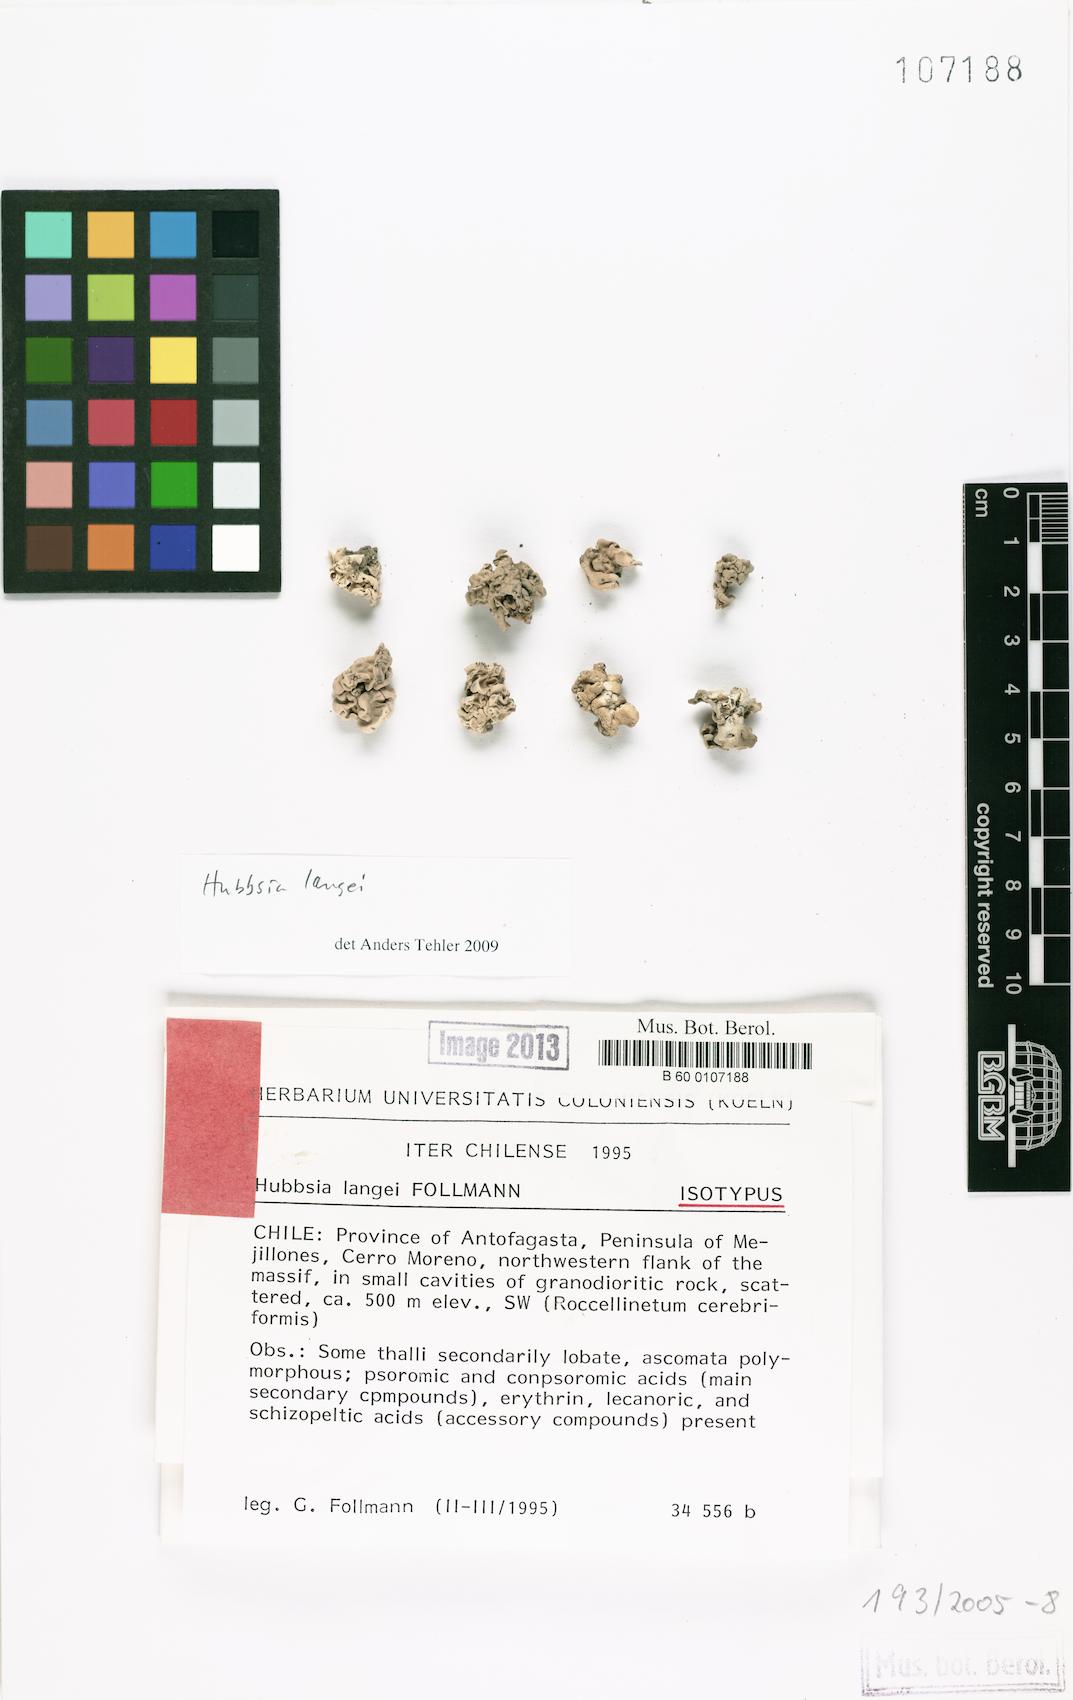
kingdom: Fungi
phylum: Ascomycota
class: Arthoniomycetes
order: Arthoniales
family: Opegraphaceae
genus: Pentagenella
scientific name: Pentagenella langei
